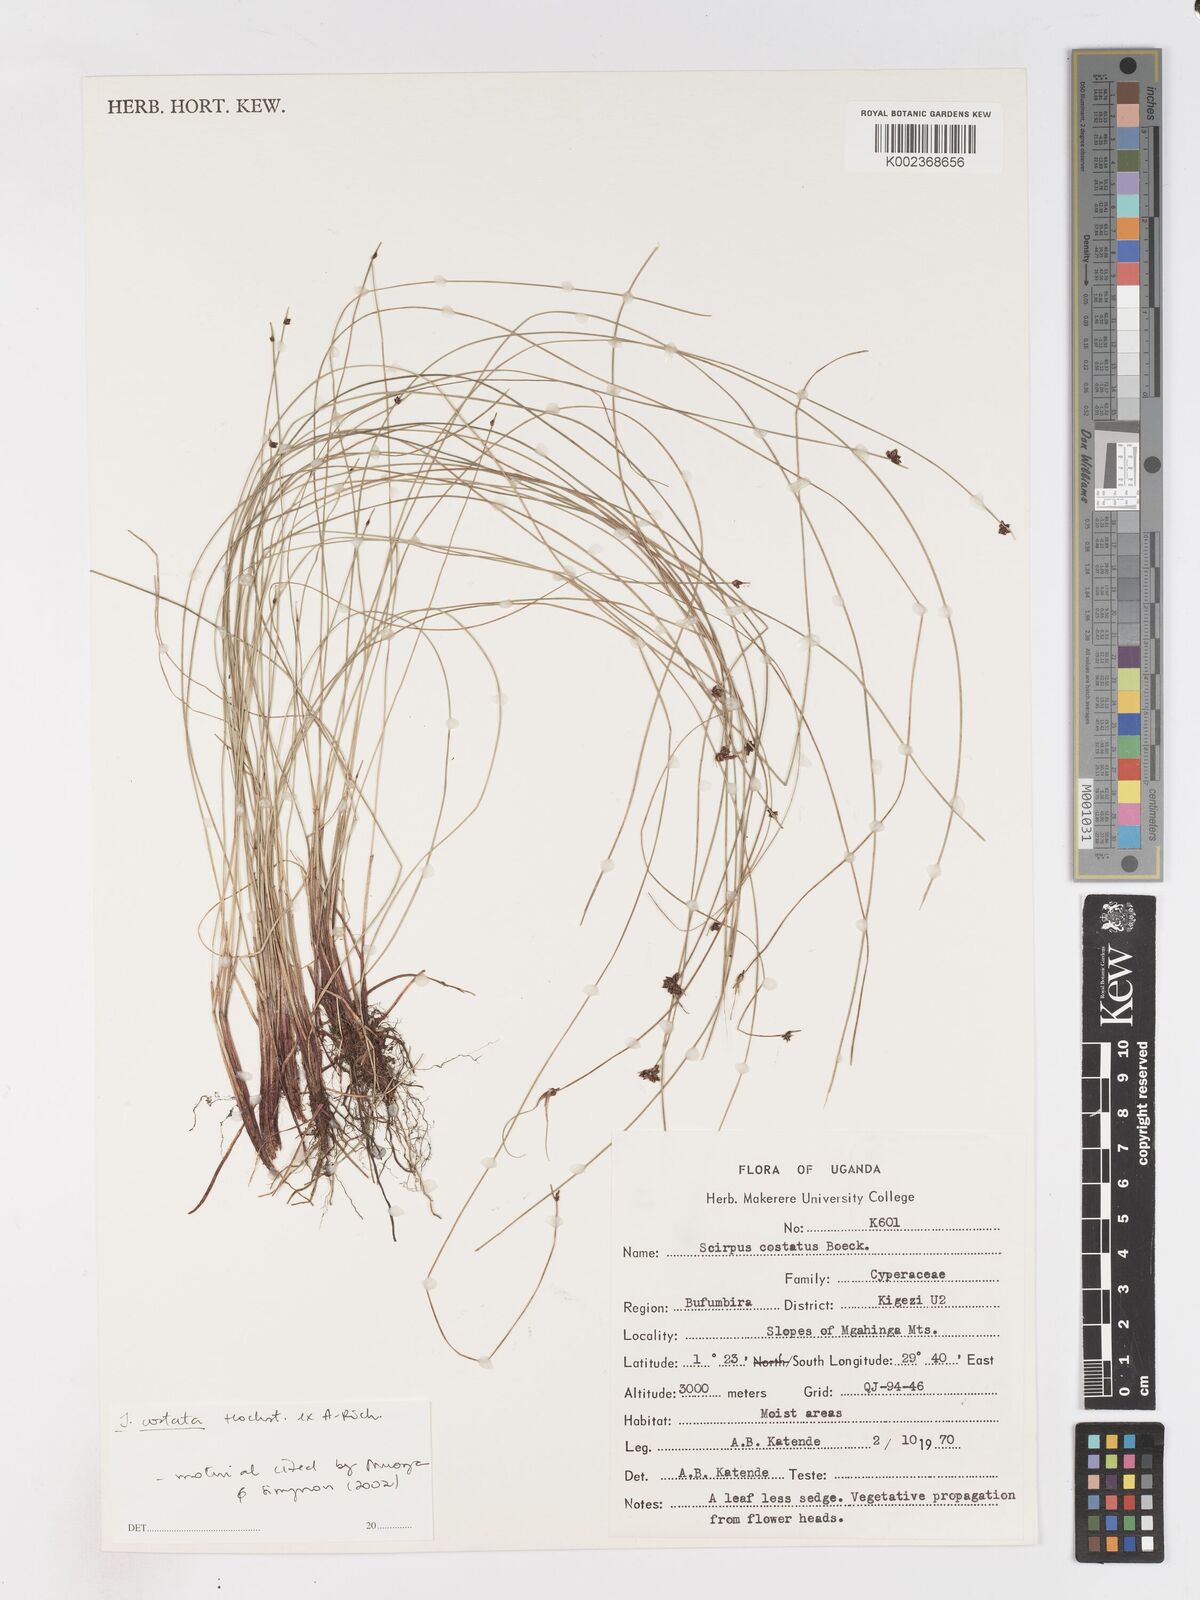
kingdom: Plantae
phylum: Tracheophyta
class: Liliopsida
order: Poales
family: Cyperaceae
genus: Isolepis
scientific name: Isolepis costata
